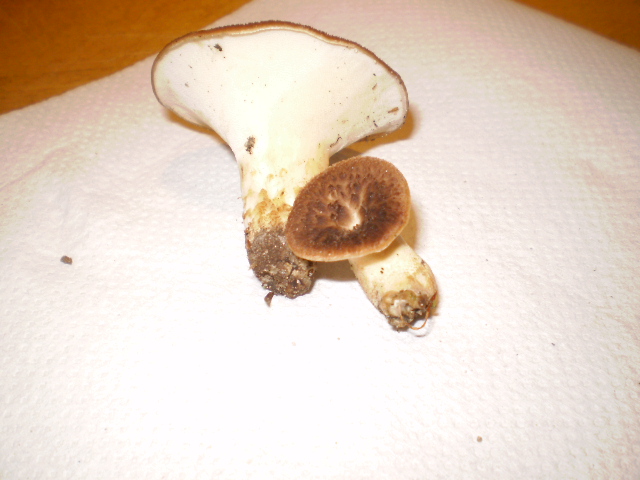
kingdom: Fungi
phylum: Basidiomycota
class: Agaricomycetes
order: Polyporales
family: Polyporaceae
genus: Cerioporus
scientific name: Cerioporus squamosus
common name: skællet stilkporesvamp
